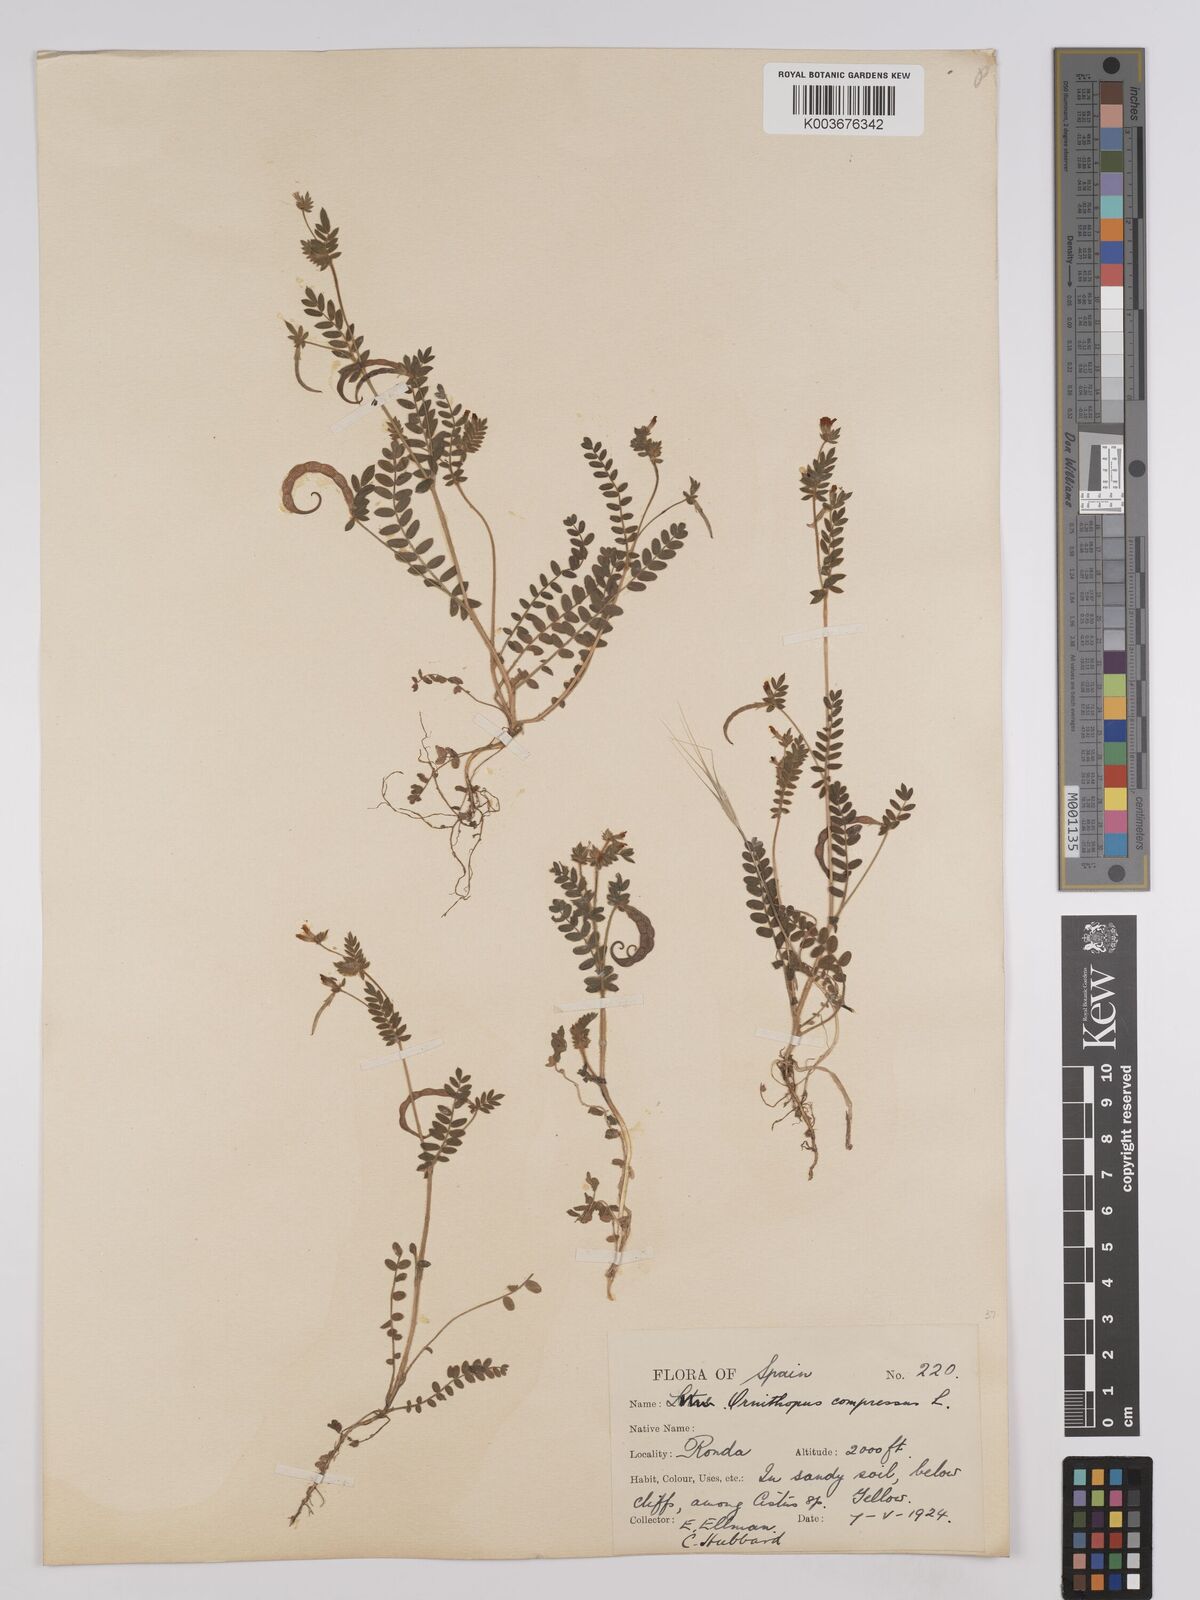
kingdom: Plantae
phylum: Tracheophyta
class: Magnoliopsida
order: Fabales
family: Fabaceae
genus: Ornithopus
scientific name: Ornithopus compressus
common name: Yellow serradella
